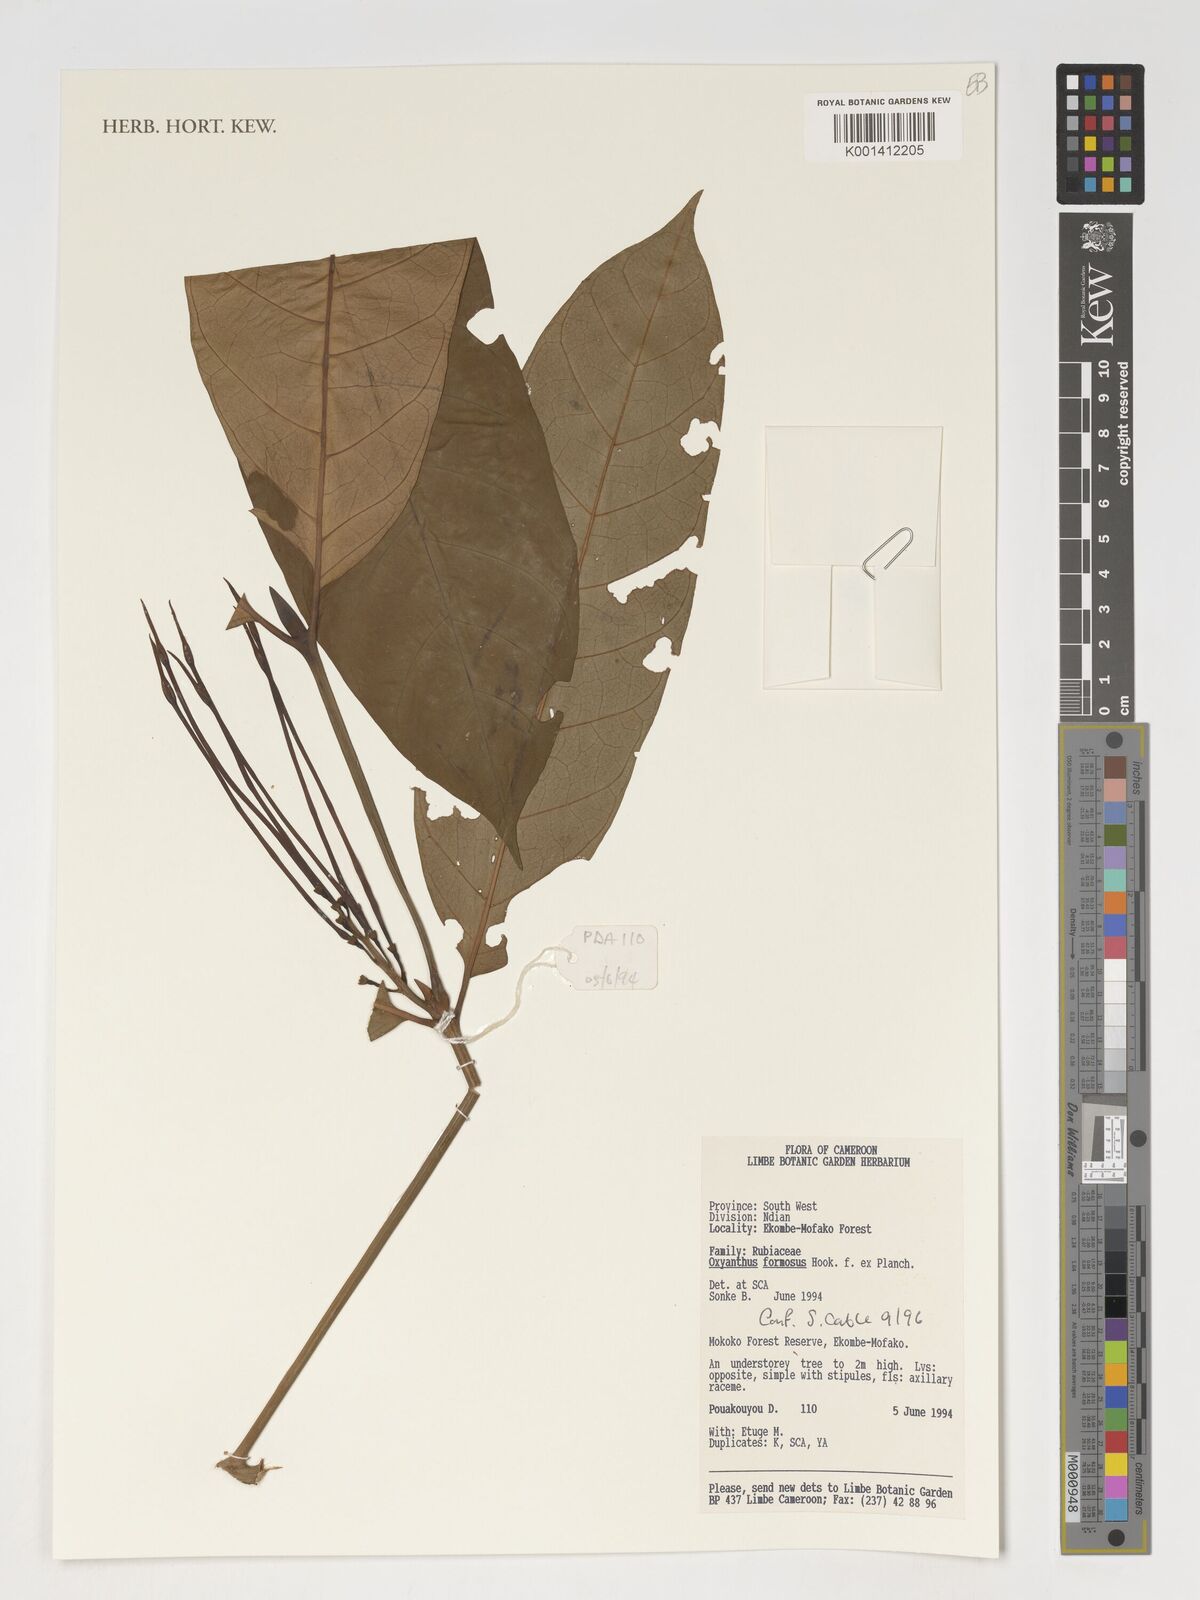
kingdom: Plantae
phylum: Tracheophyta
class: Magnoliopsida
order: Gentianales
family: Rubiaceae
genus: Oxyanthus
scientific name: Oxyanthus formosus
